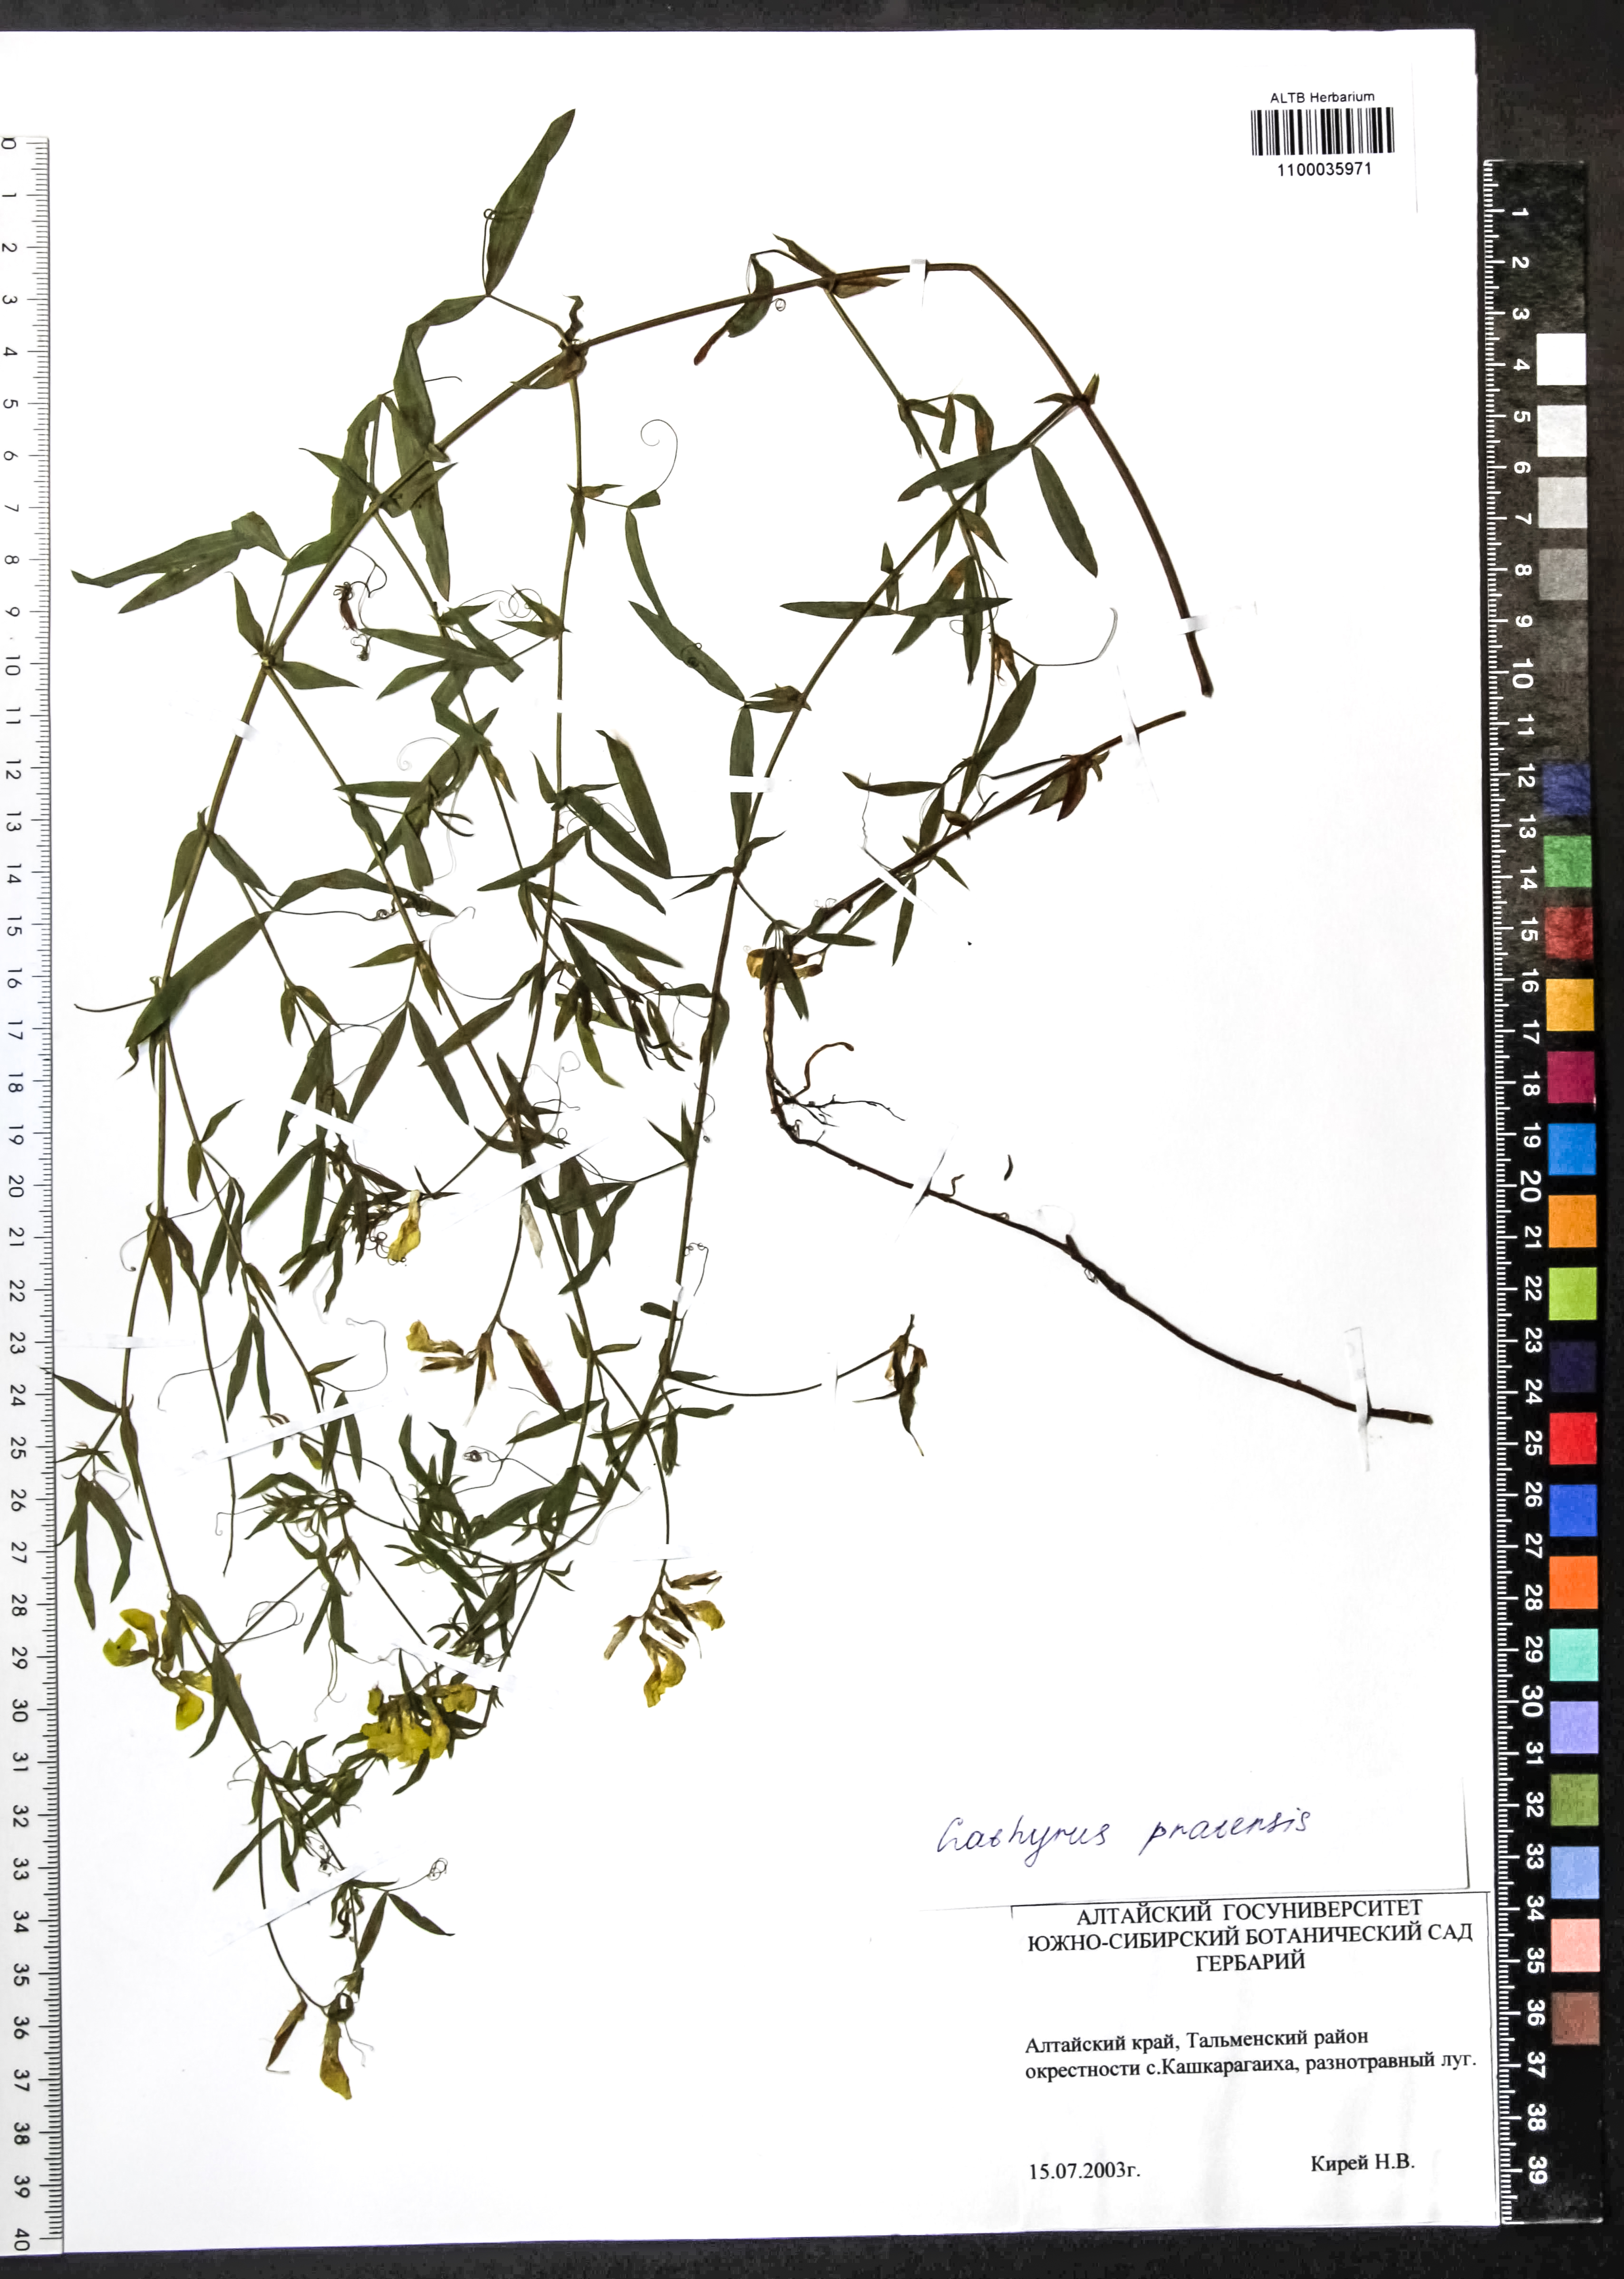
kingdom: Plantae
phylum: Tracheophyta
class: Magnoliopsida
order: Fabales
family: Fabaceae
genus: Lathyrus
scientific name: Lathyrus pratensis
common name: Meadow vetchling
